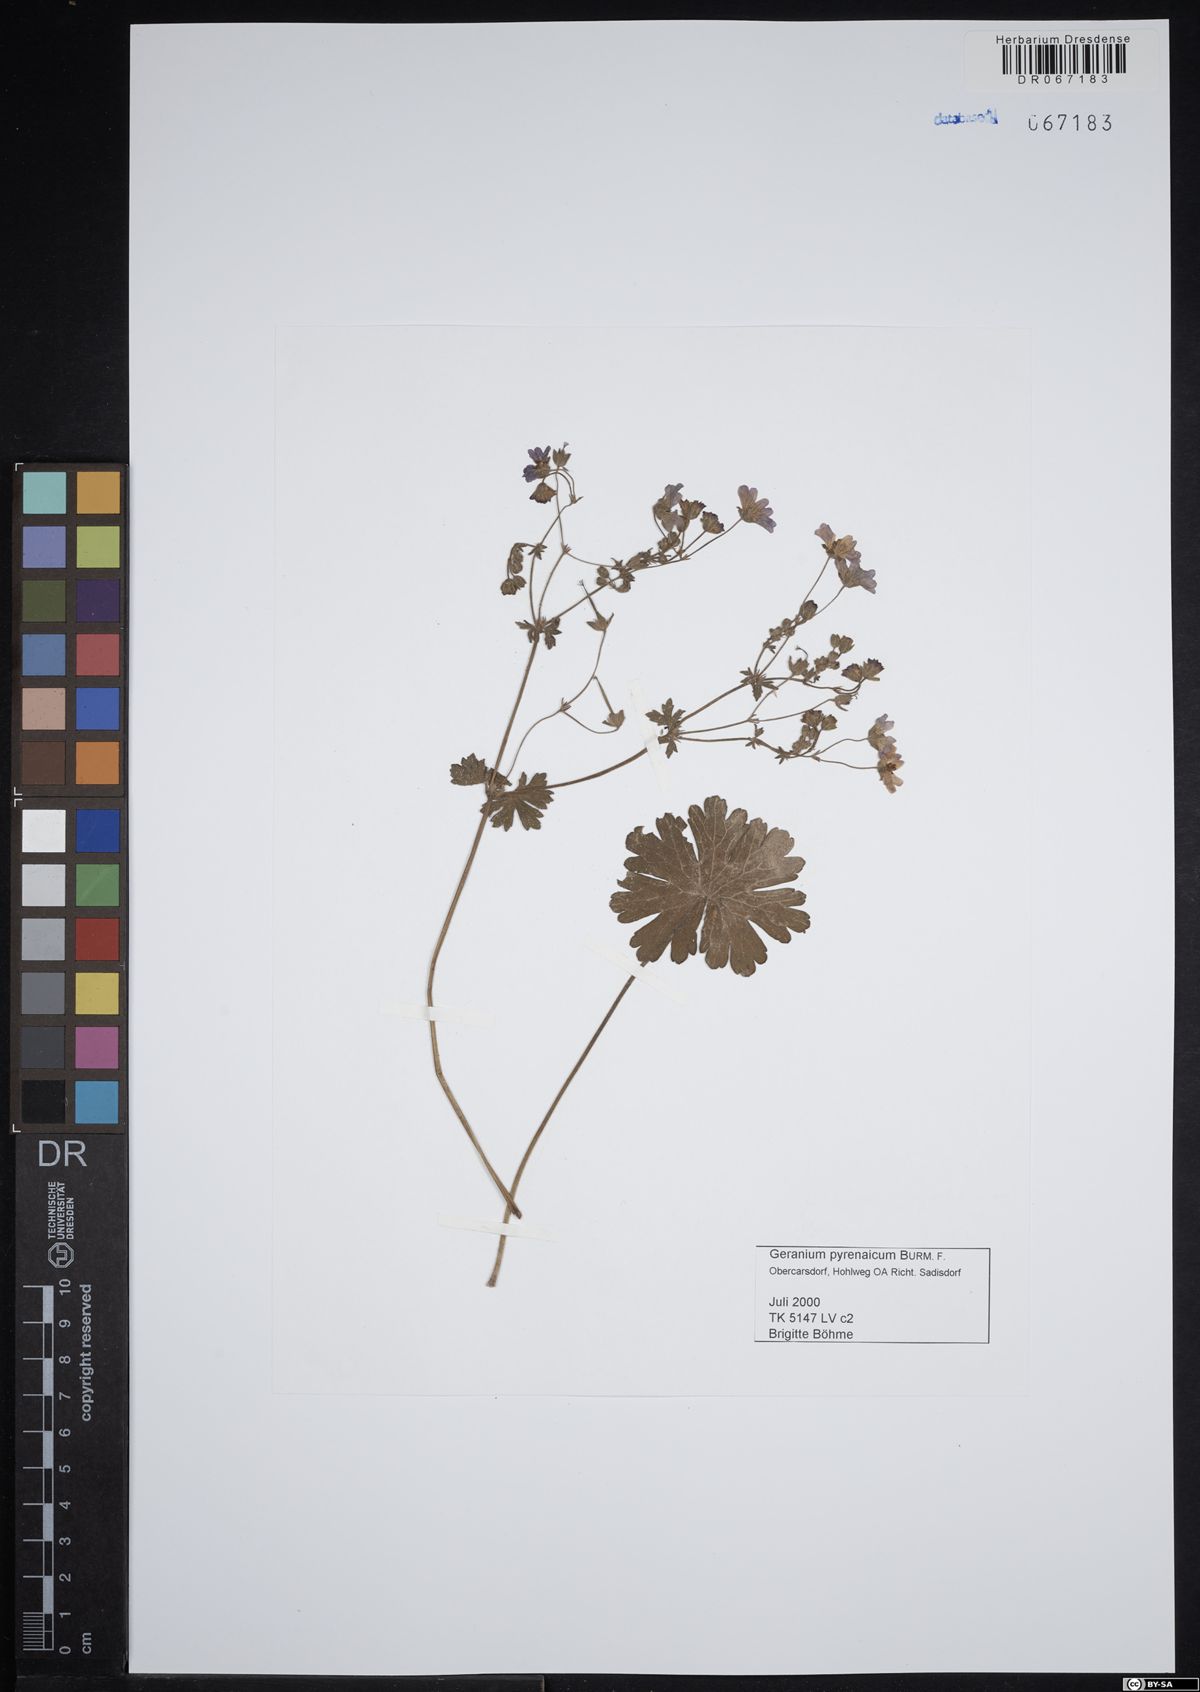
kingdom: Plantae
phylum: Tracheophyta
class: Magnoliopsida
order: Geraniales
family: Geraniaceae
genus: Geranium
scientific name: Geranium pyrenaicum
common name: Hedgerow crane's-bill
